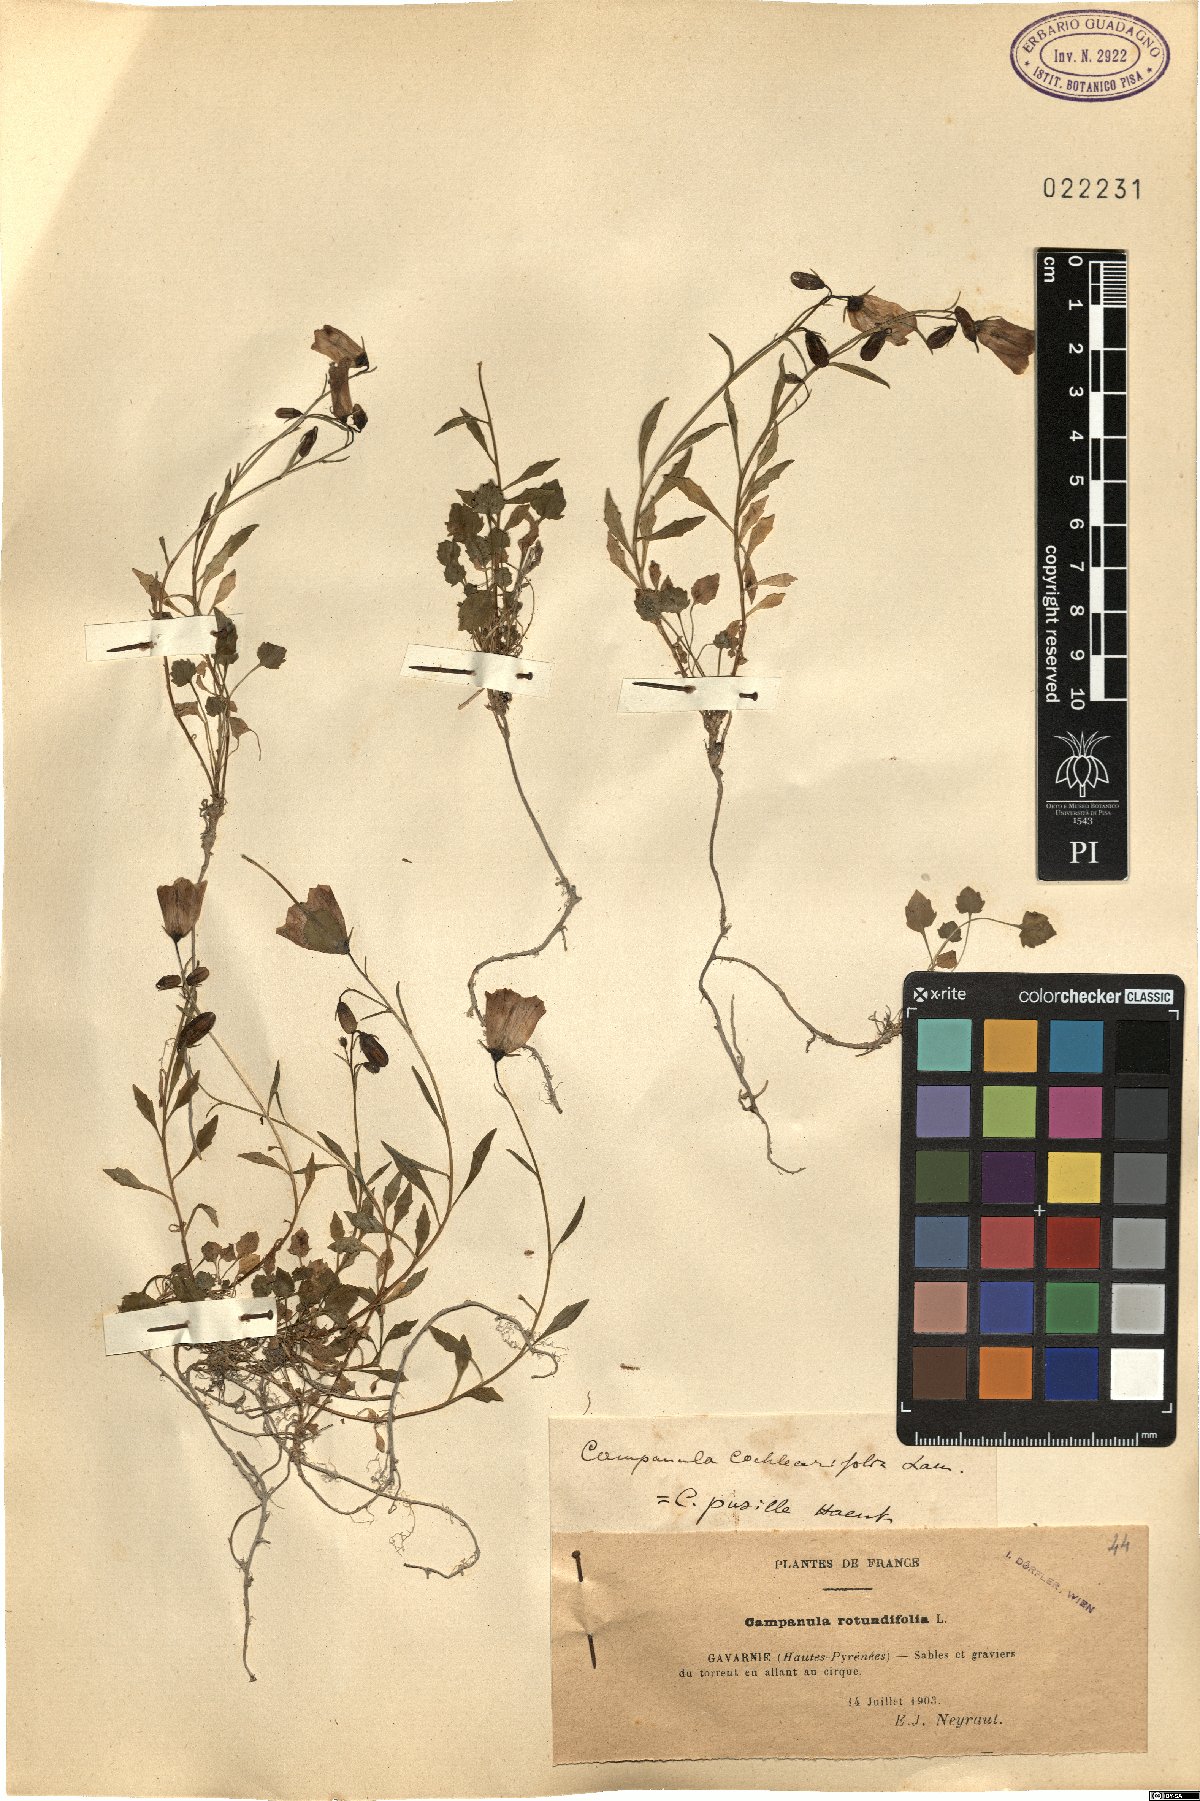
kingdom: Plantae
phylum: Tracheophyta
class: Magnoliopsida
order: Asterales
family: Campanulaceae
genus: Campanula
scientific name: Campanula cochleariifolia
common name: Fairies'-thimbles
